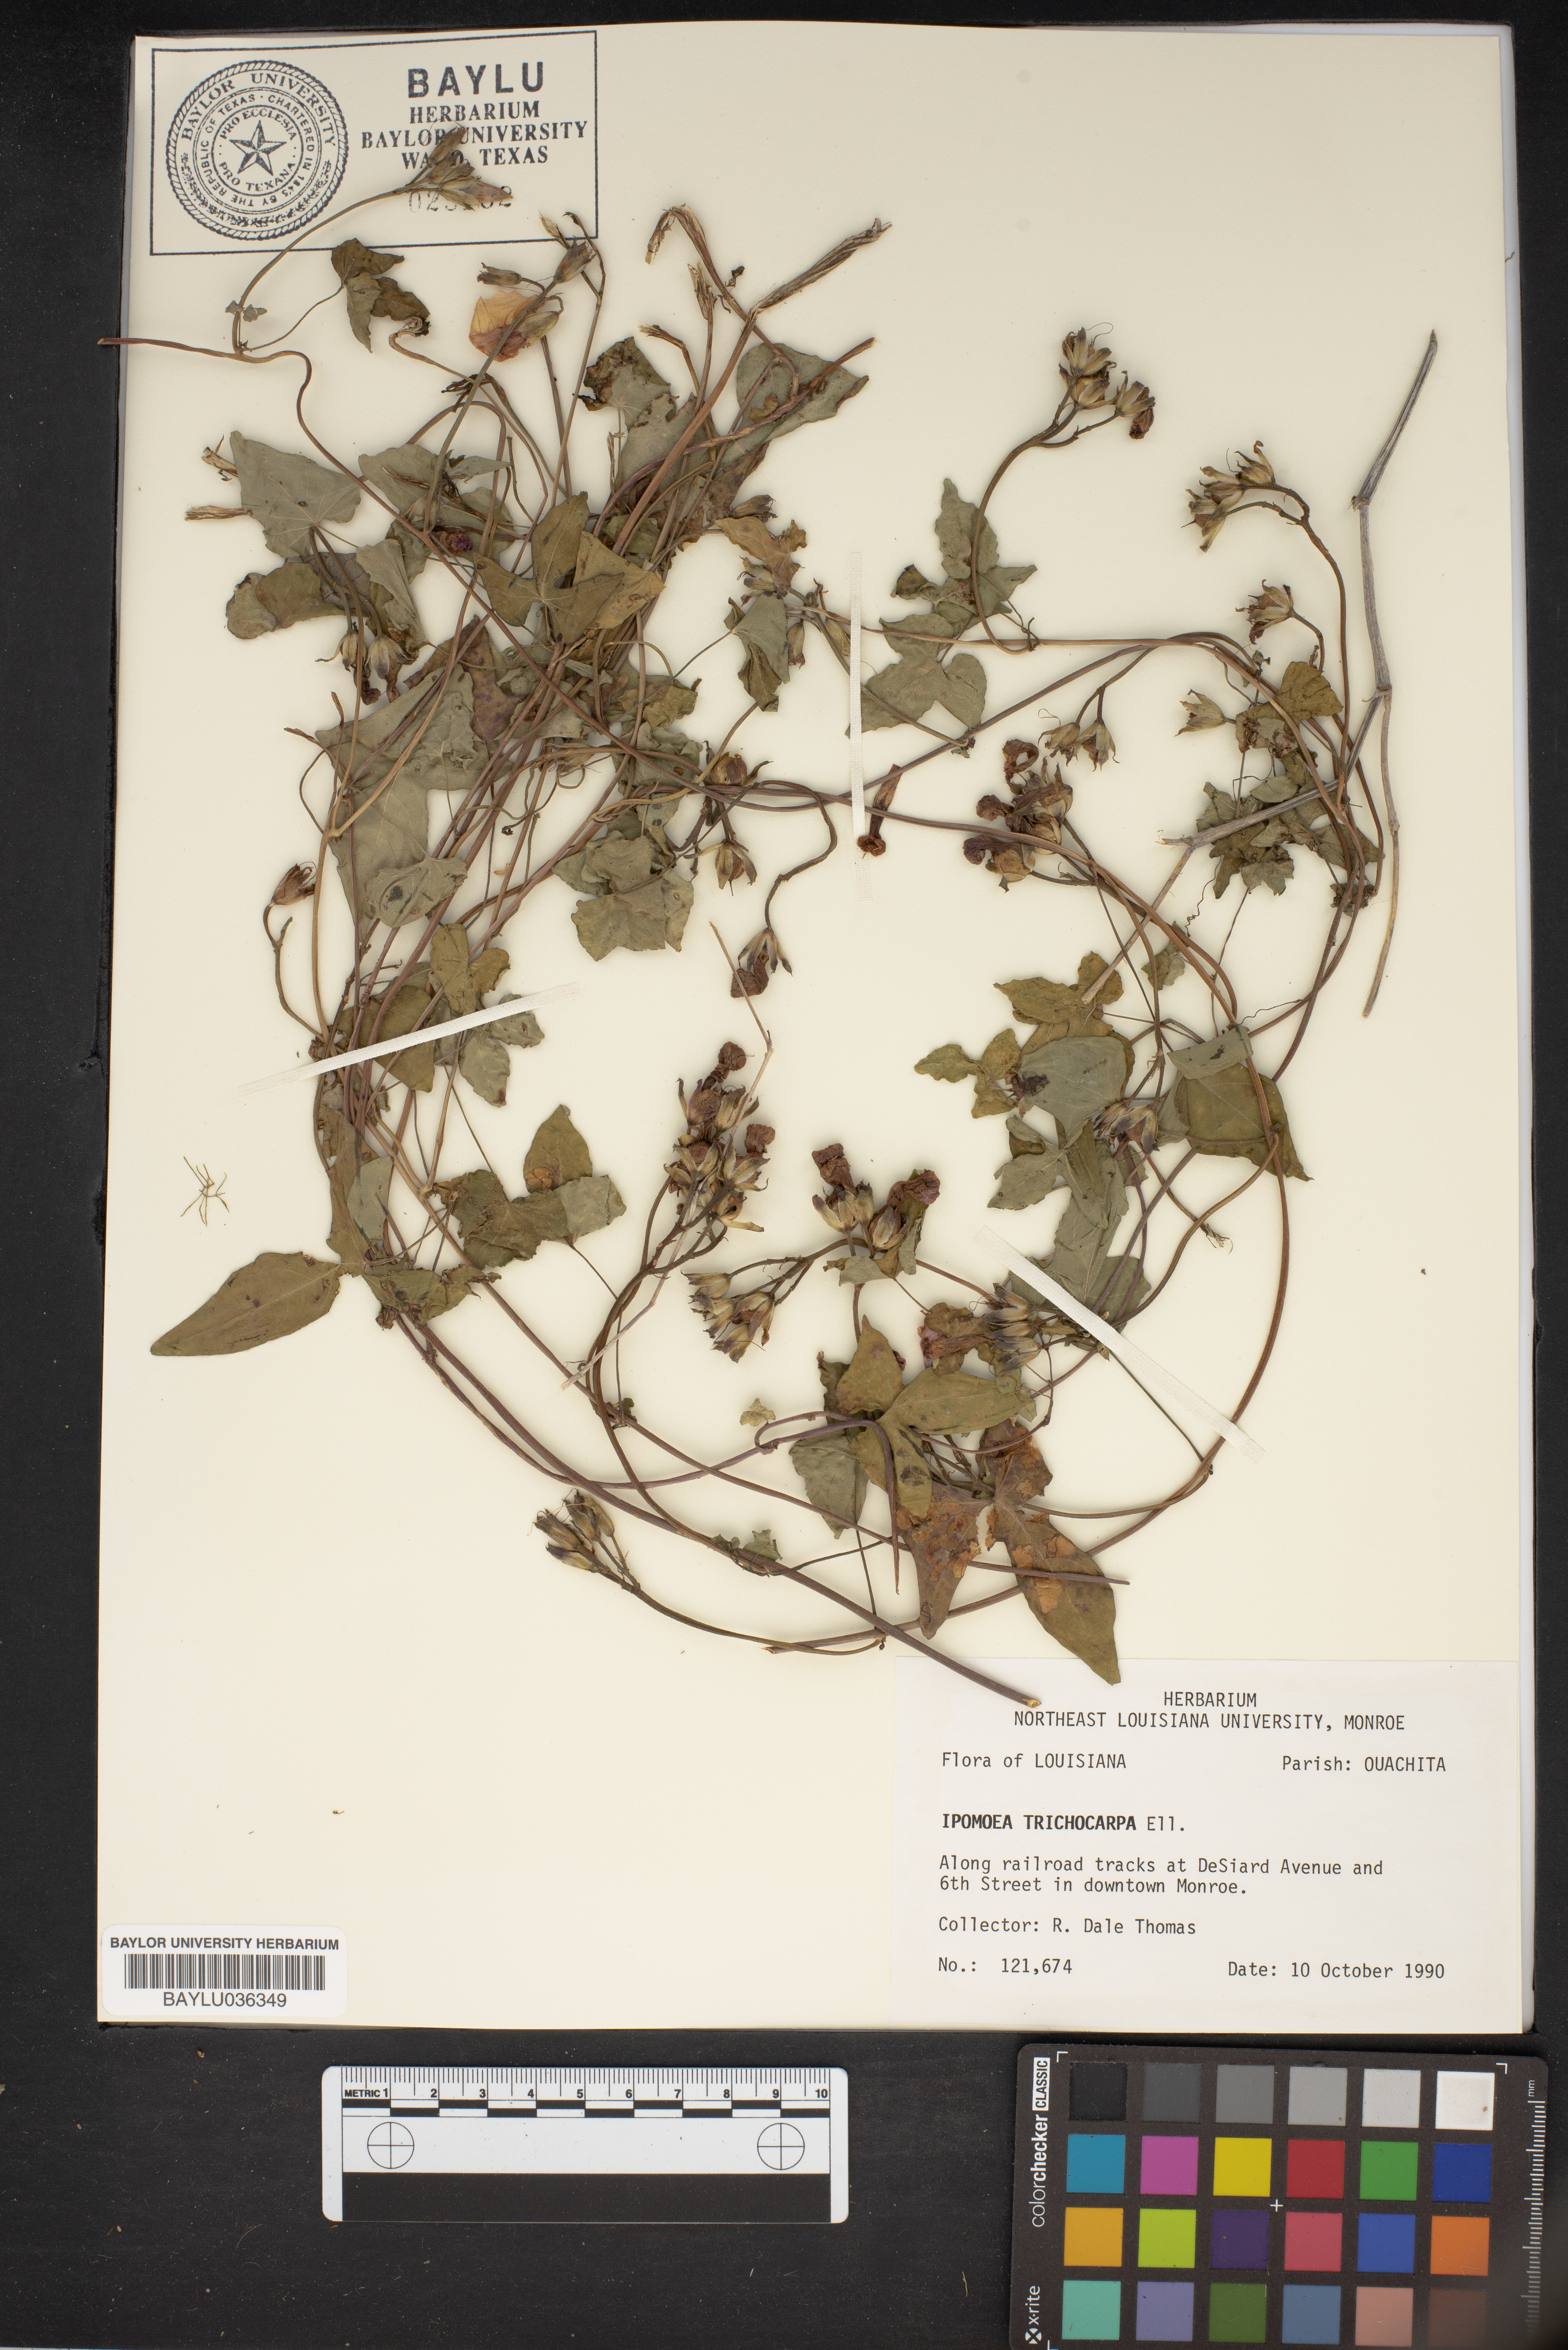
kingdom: Plantae
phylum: Tracheophyta
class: Magnoliopsida
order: Solanales
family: Convolvulaceae
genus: Ipomoea
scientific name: Ipomoea cordatotriloba
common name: Cotton morning glory
